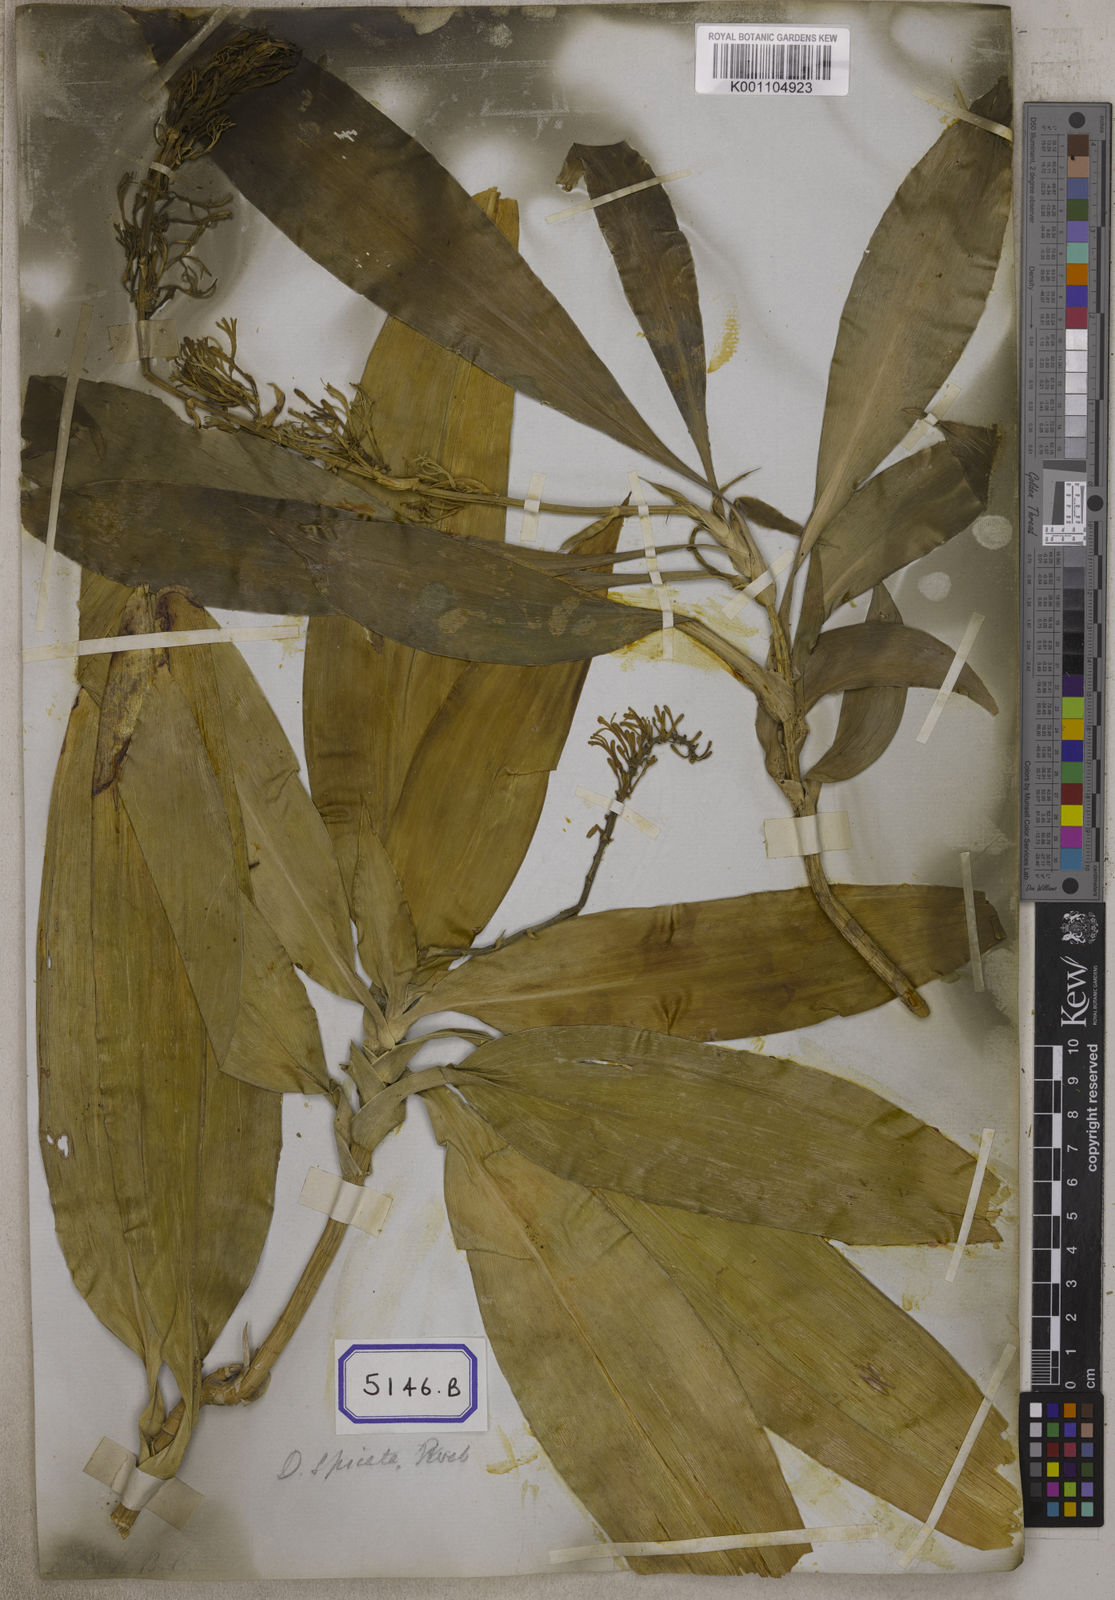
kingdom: Plantae
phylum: Tracheophyta
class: Liliopsida
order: Asparagales
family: Asparagaceae
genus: Dracaena
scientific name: Dracaena spicata
